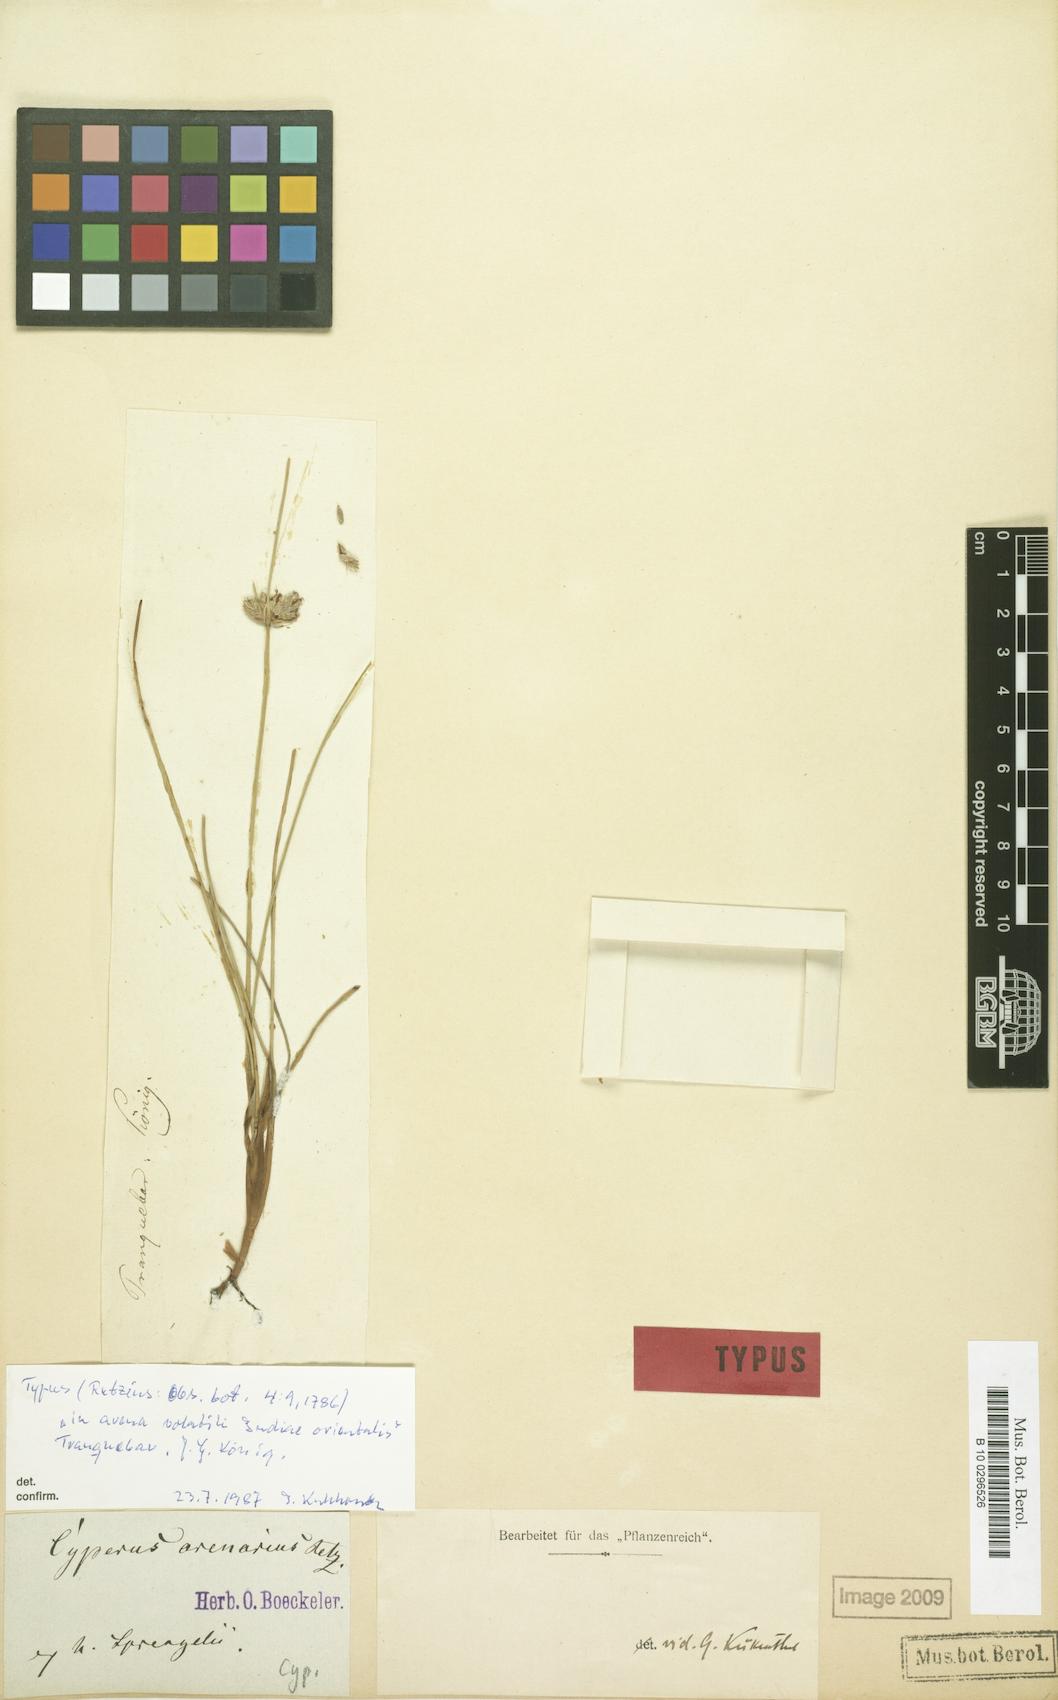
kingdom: Plantae
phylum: Tracheophyta
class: Liliopsida
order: Poales
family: Cyperaceae
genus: Cyperus
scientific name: Cyperus arenarius
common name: Dwarf sedge
